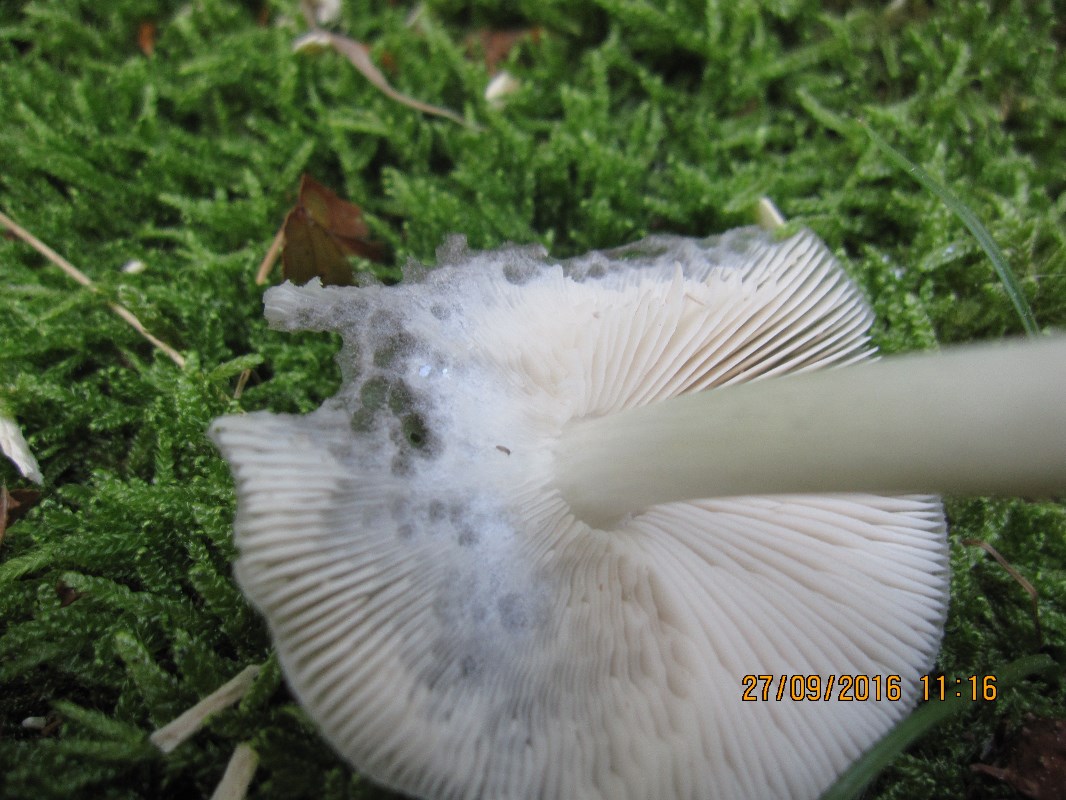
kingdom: Fungi
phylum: Basidiomycota
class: Agaricomycetes
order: Agaricales
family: Pluteaceae
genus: Pluteus
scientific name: Pluteus salicinus
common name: stiv skærmhat
